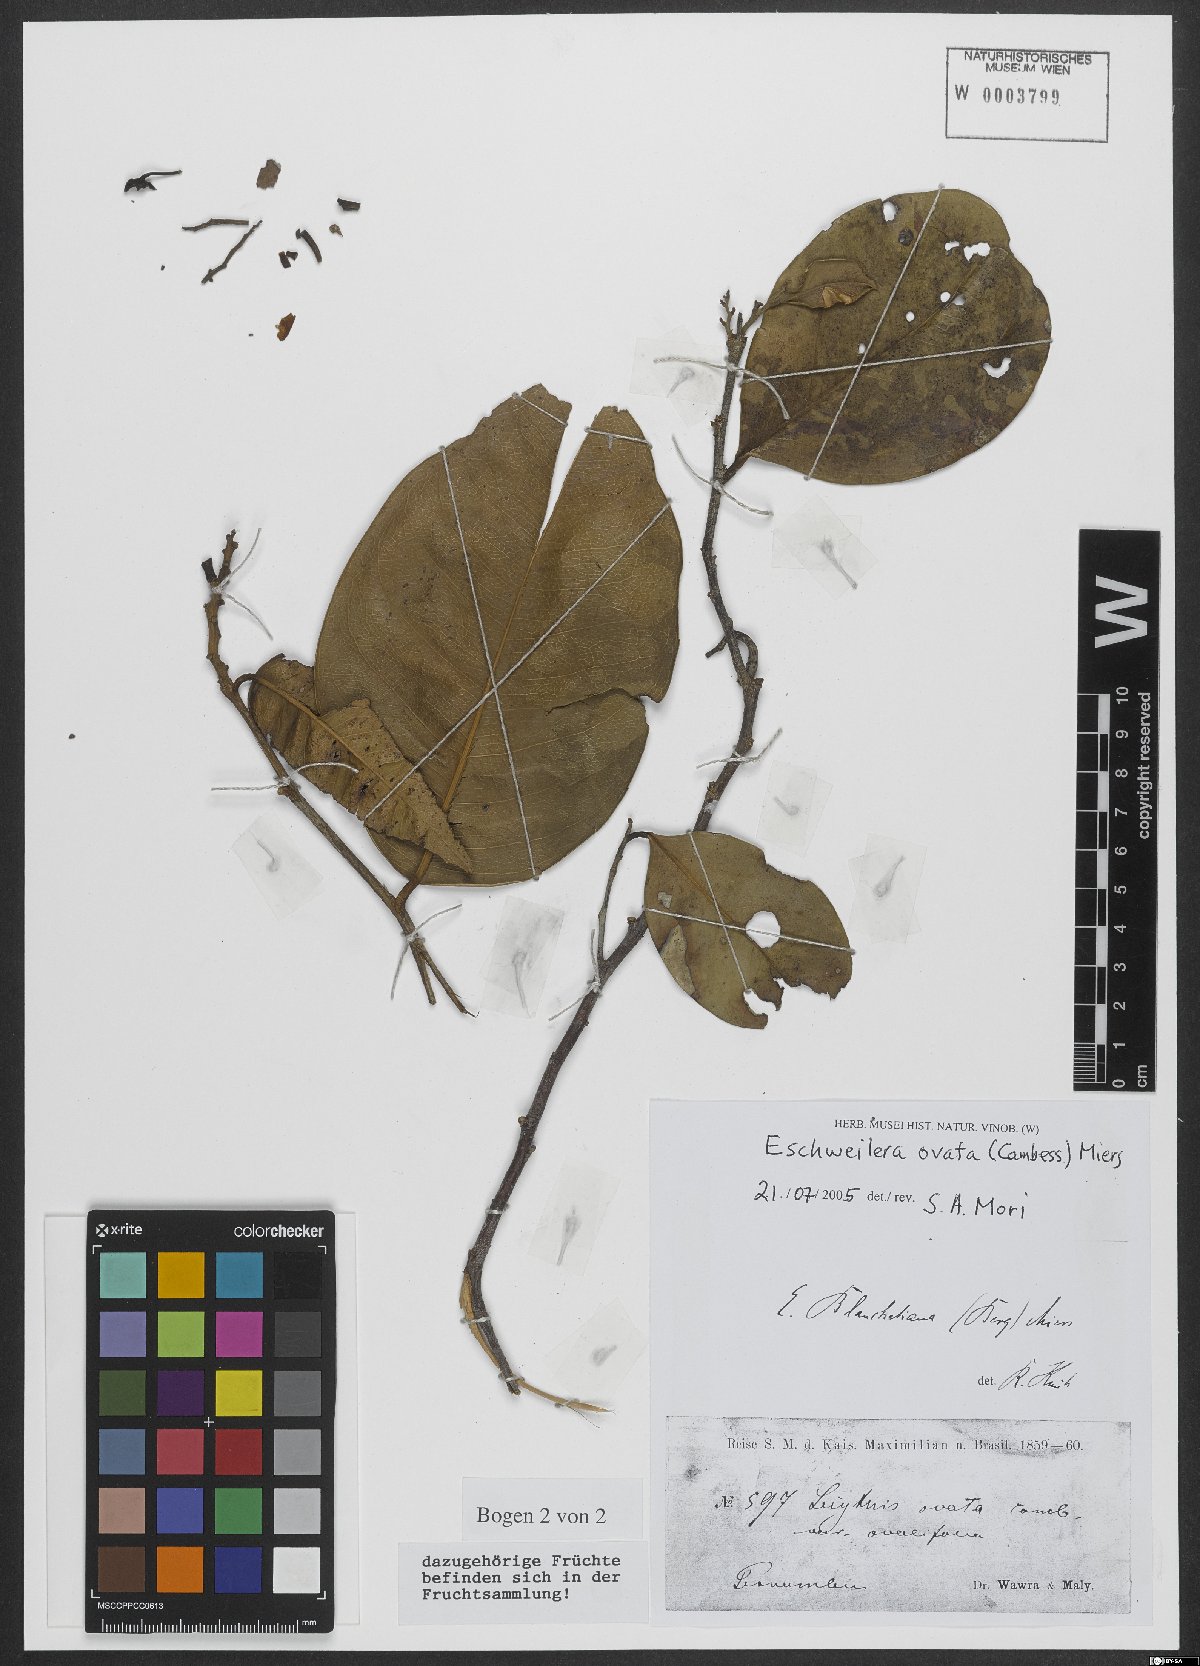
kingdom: Plantae
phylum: Tracheophyta
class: Magnoliopsida
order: Ericales
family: Lecythidaceae
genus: Eschweilera
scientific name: Eschweilera ovata
